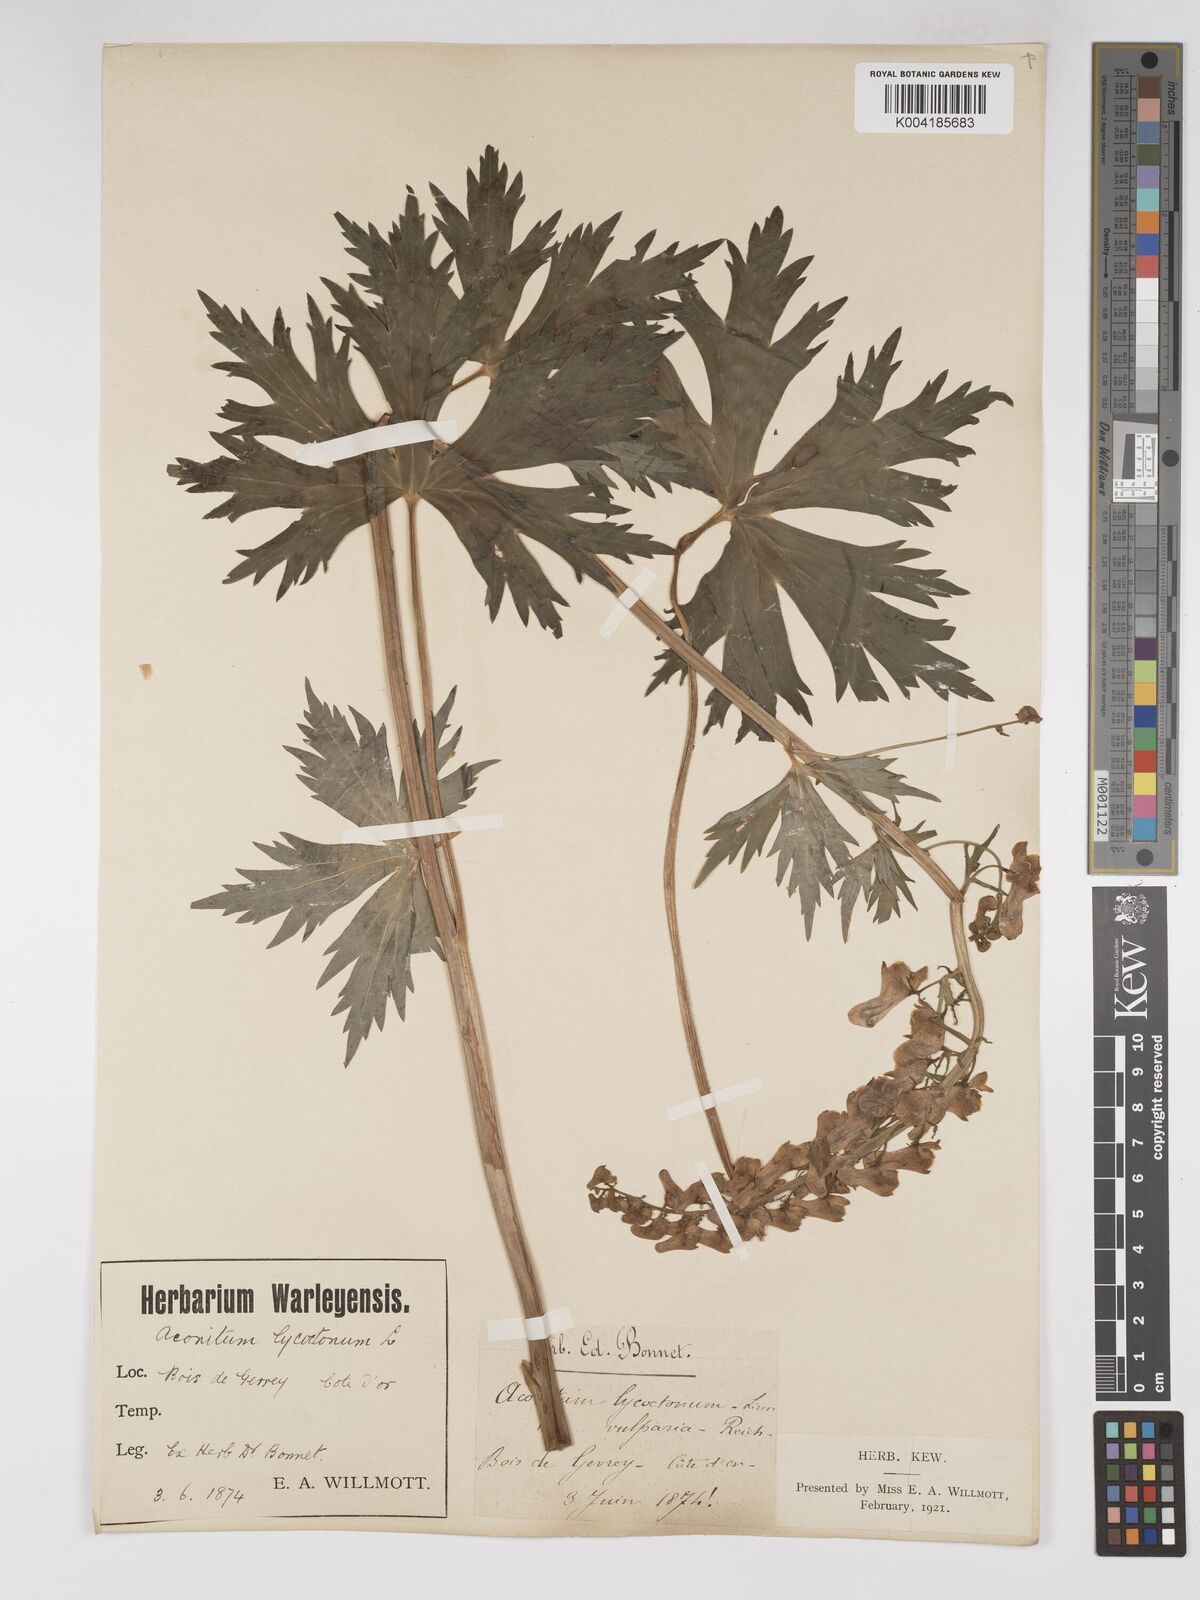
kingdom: Plantae
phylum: Tracheophyta
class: Magnoliopsida
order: Ranunculales
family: Ranunculaceae
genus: Aconitum
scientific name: Aconitum lycoctonum
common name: Wolf's-bane
